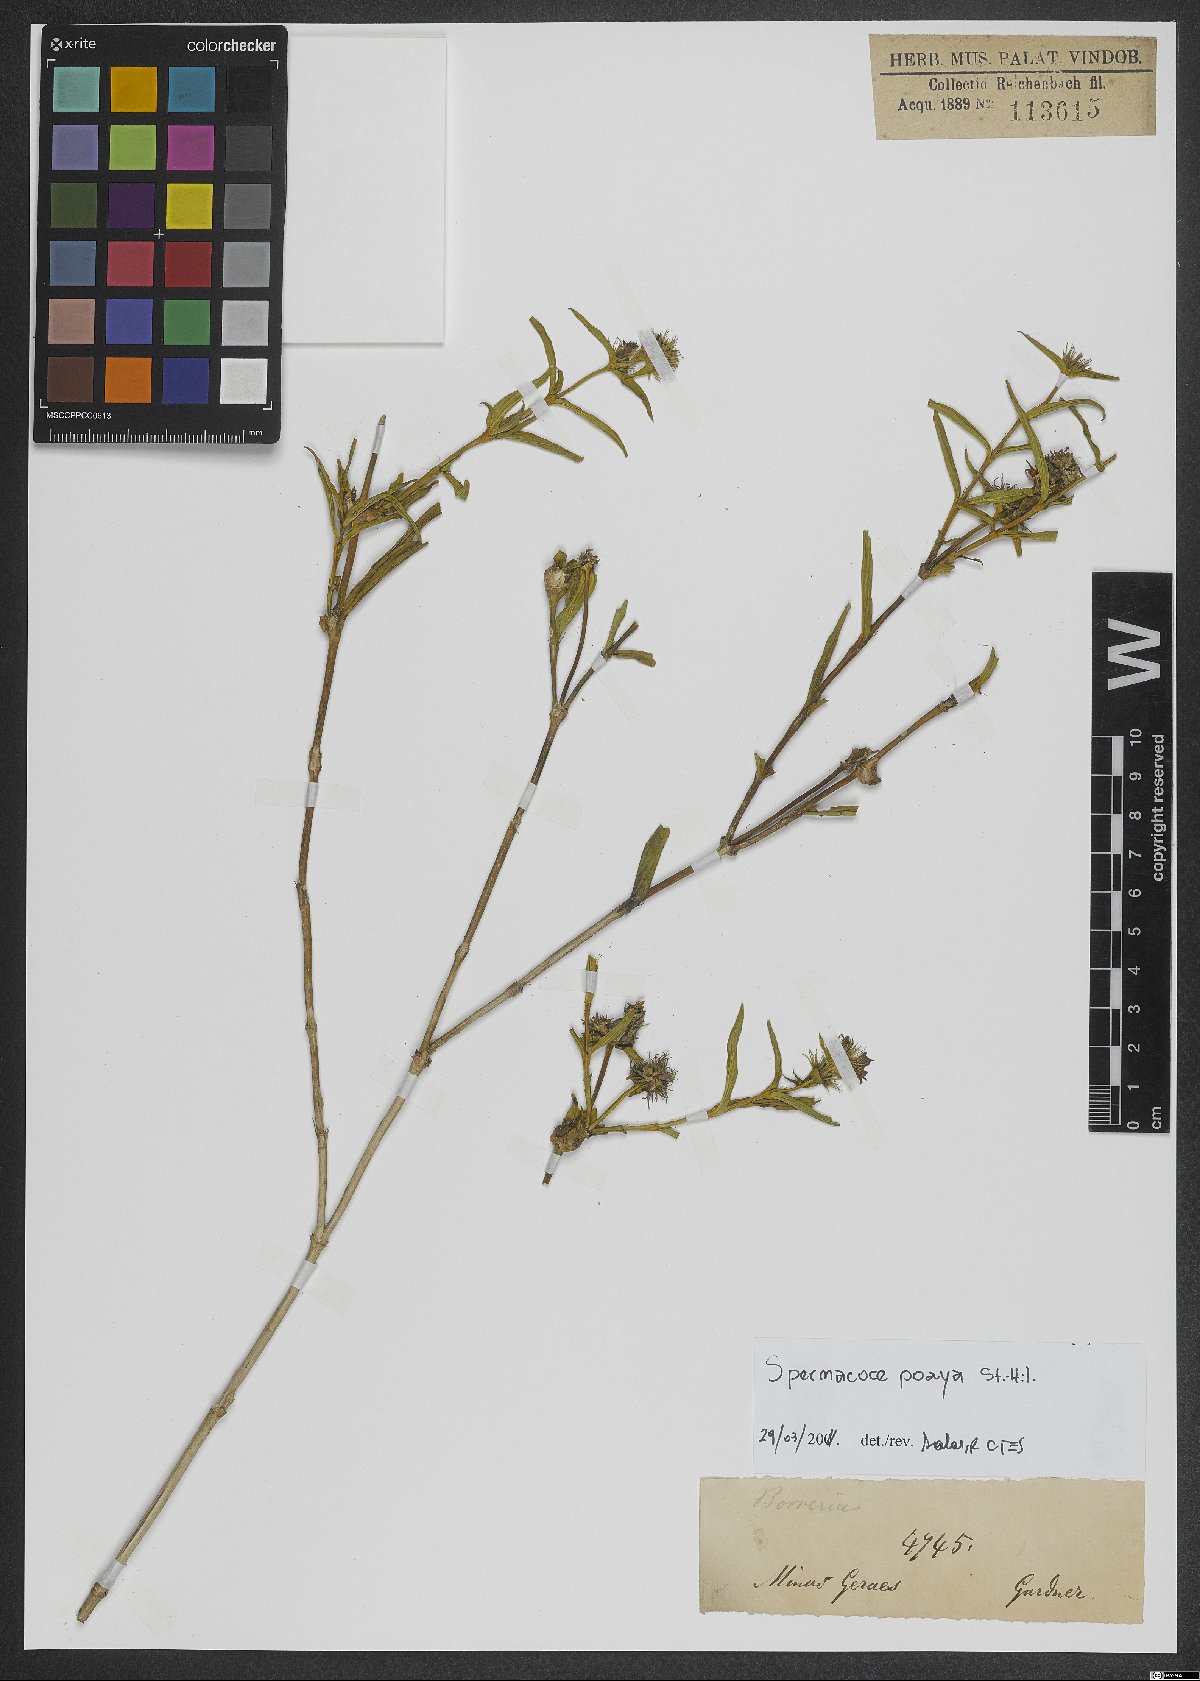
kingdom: Plantae
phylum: Tracheophyta
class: Magnoliopsida
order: Gentianales
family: Rubiaceae
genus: Spermacoce
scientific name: Spermacoce poaya
